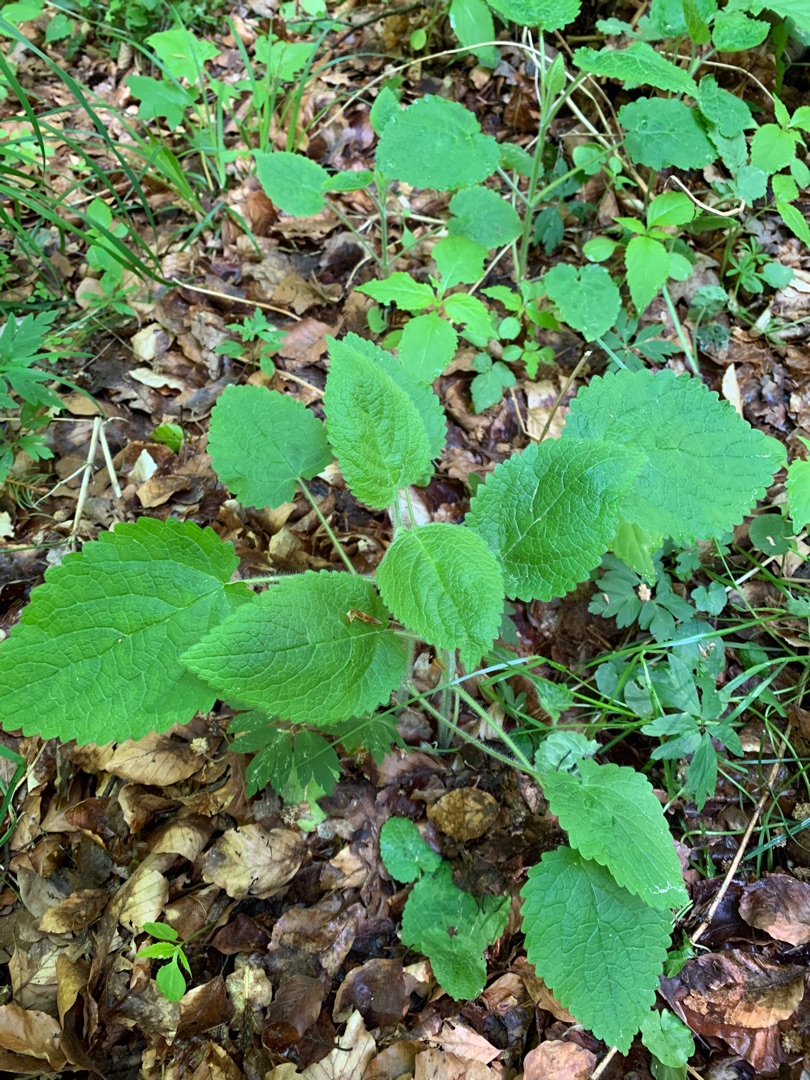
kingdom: Plantae
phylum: Tracheophyta
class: Magnoliopsida
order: Lamiales
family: Lamiaceae
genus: Stachys
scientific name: Stachys sylvatica
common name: Skov-galtetand
